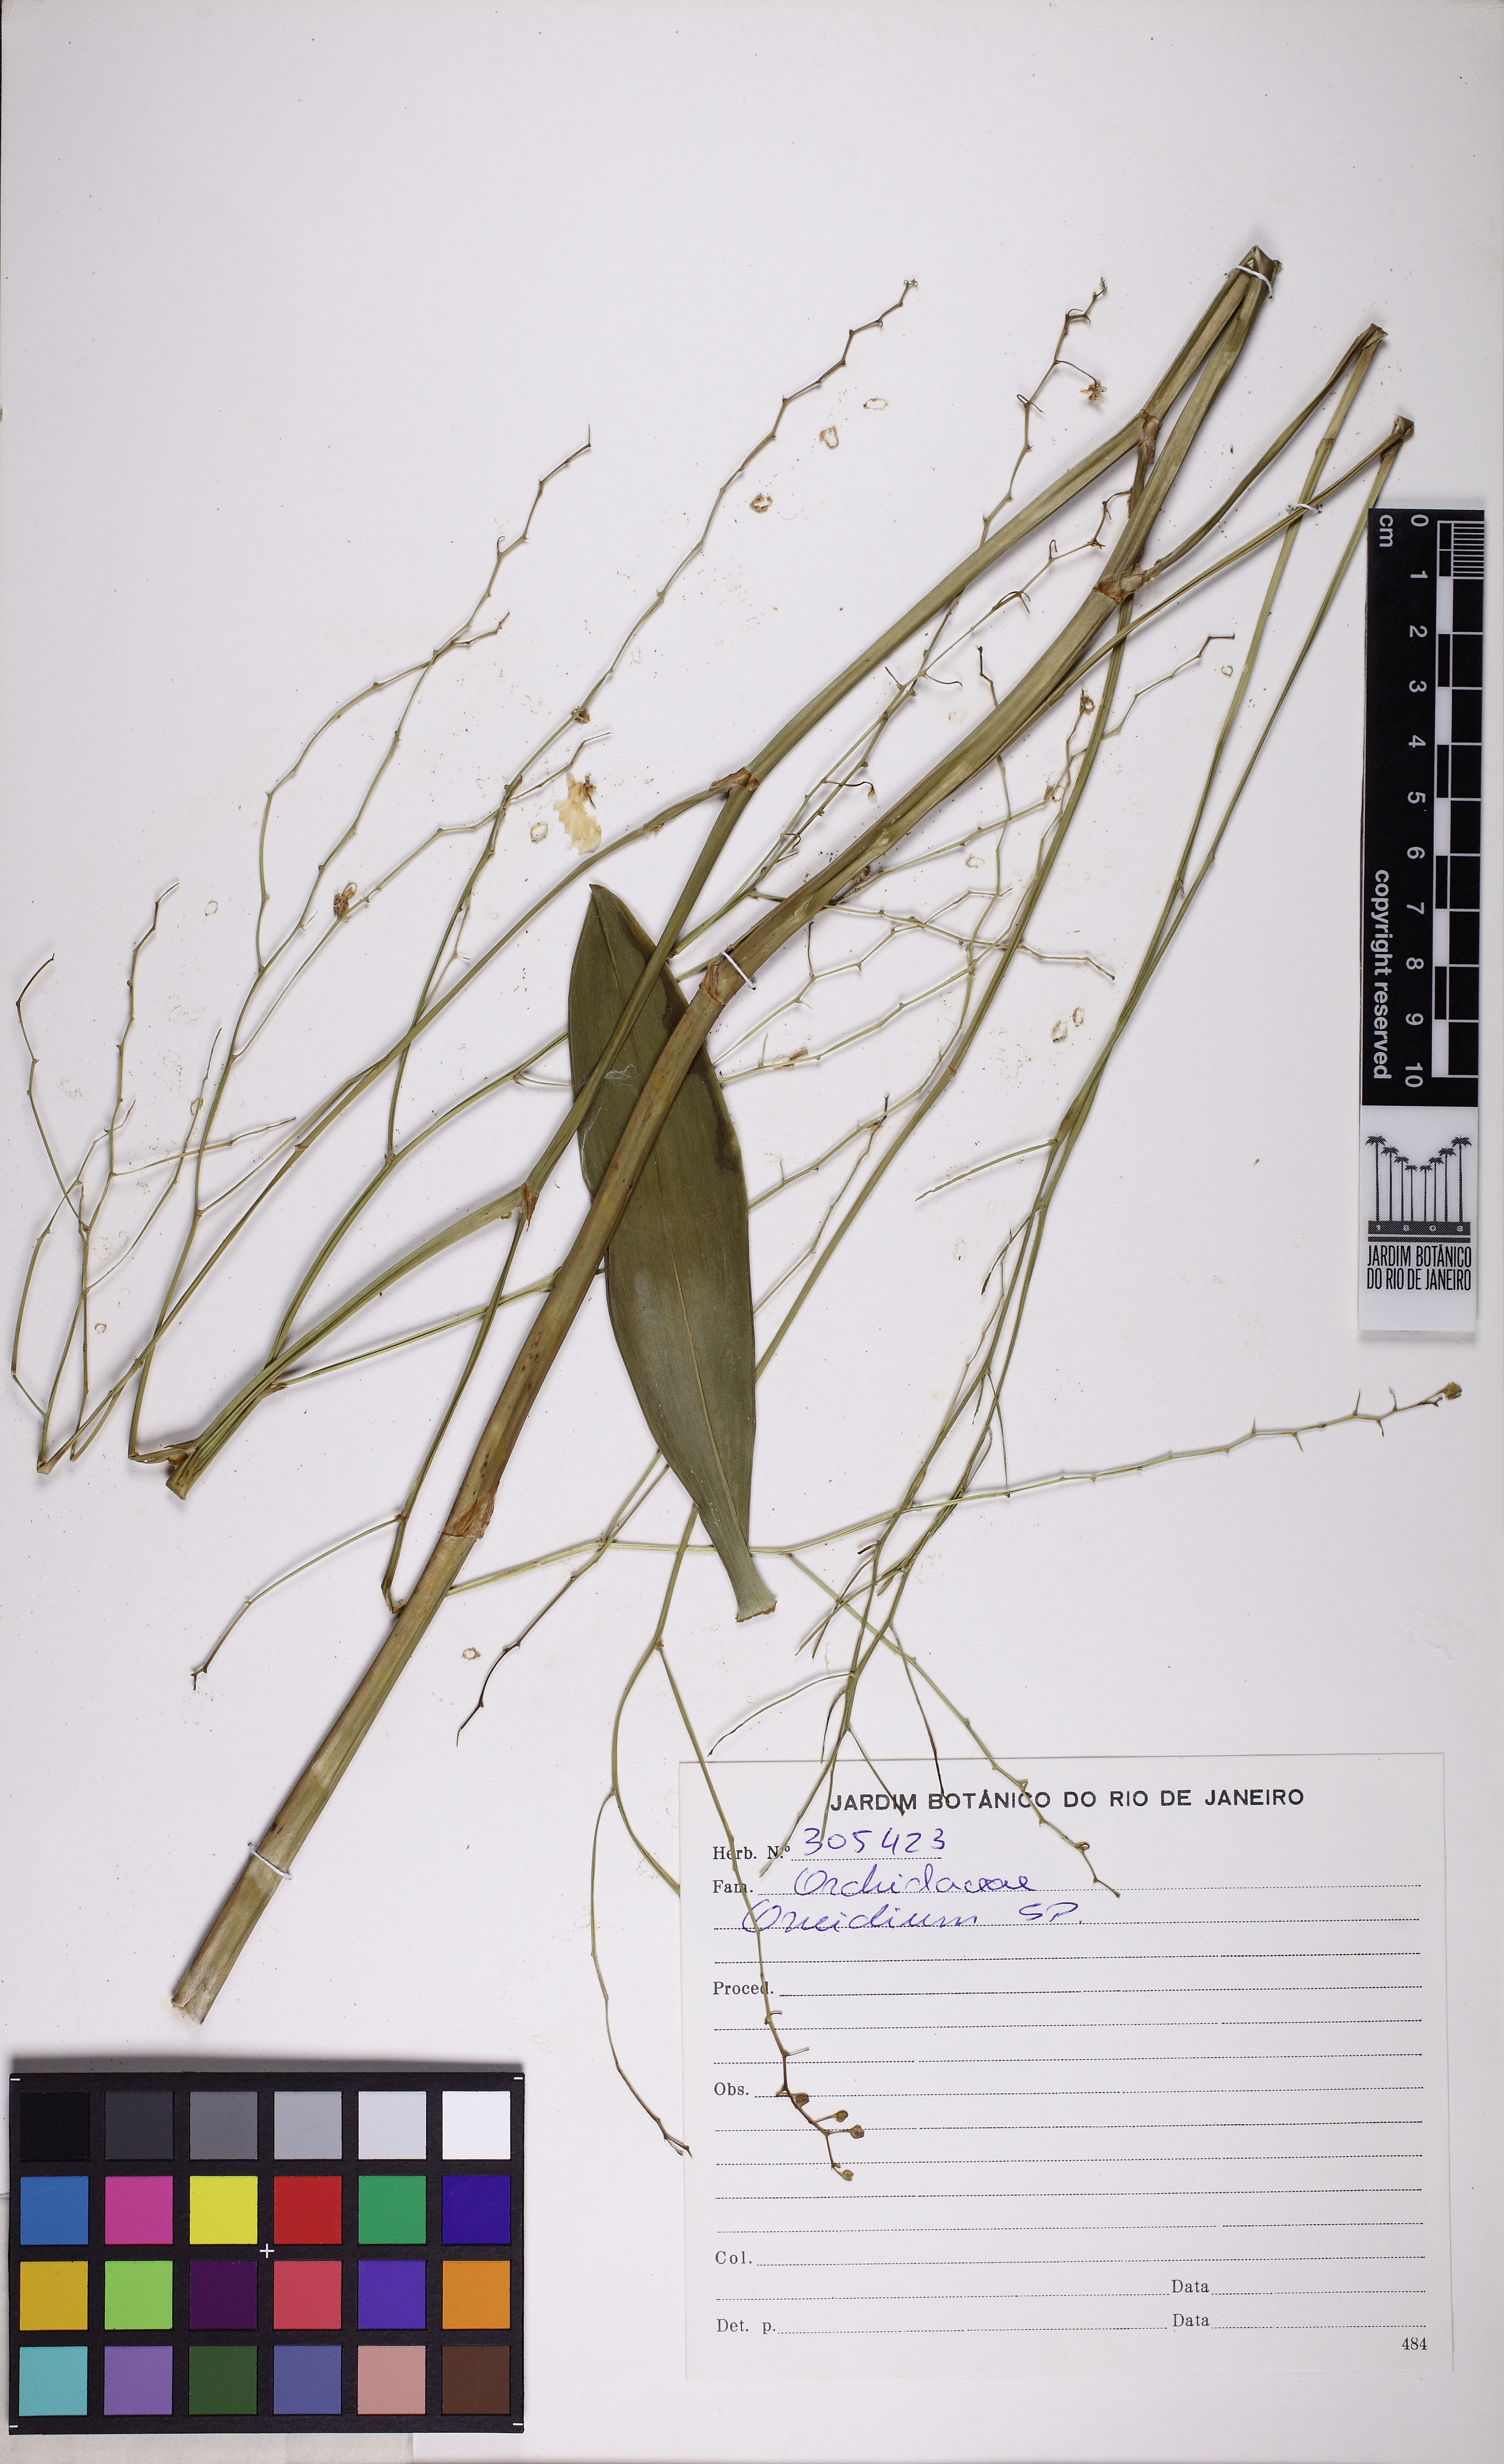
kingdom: Plantae
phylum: Tracheophyta
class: Liliopsida
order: Asparagales
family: Orchidaceae
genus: Gomesa
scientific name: Gomesa flexuosa
